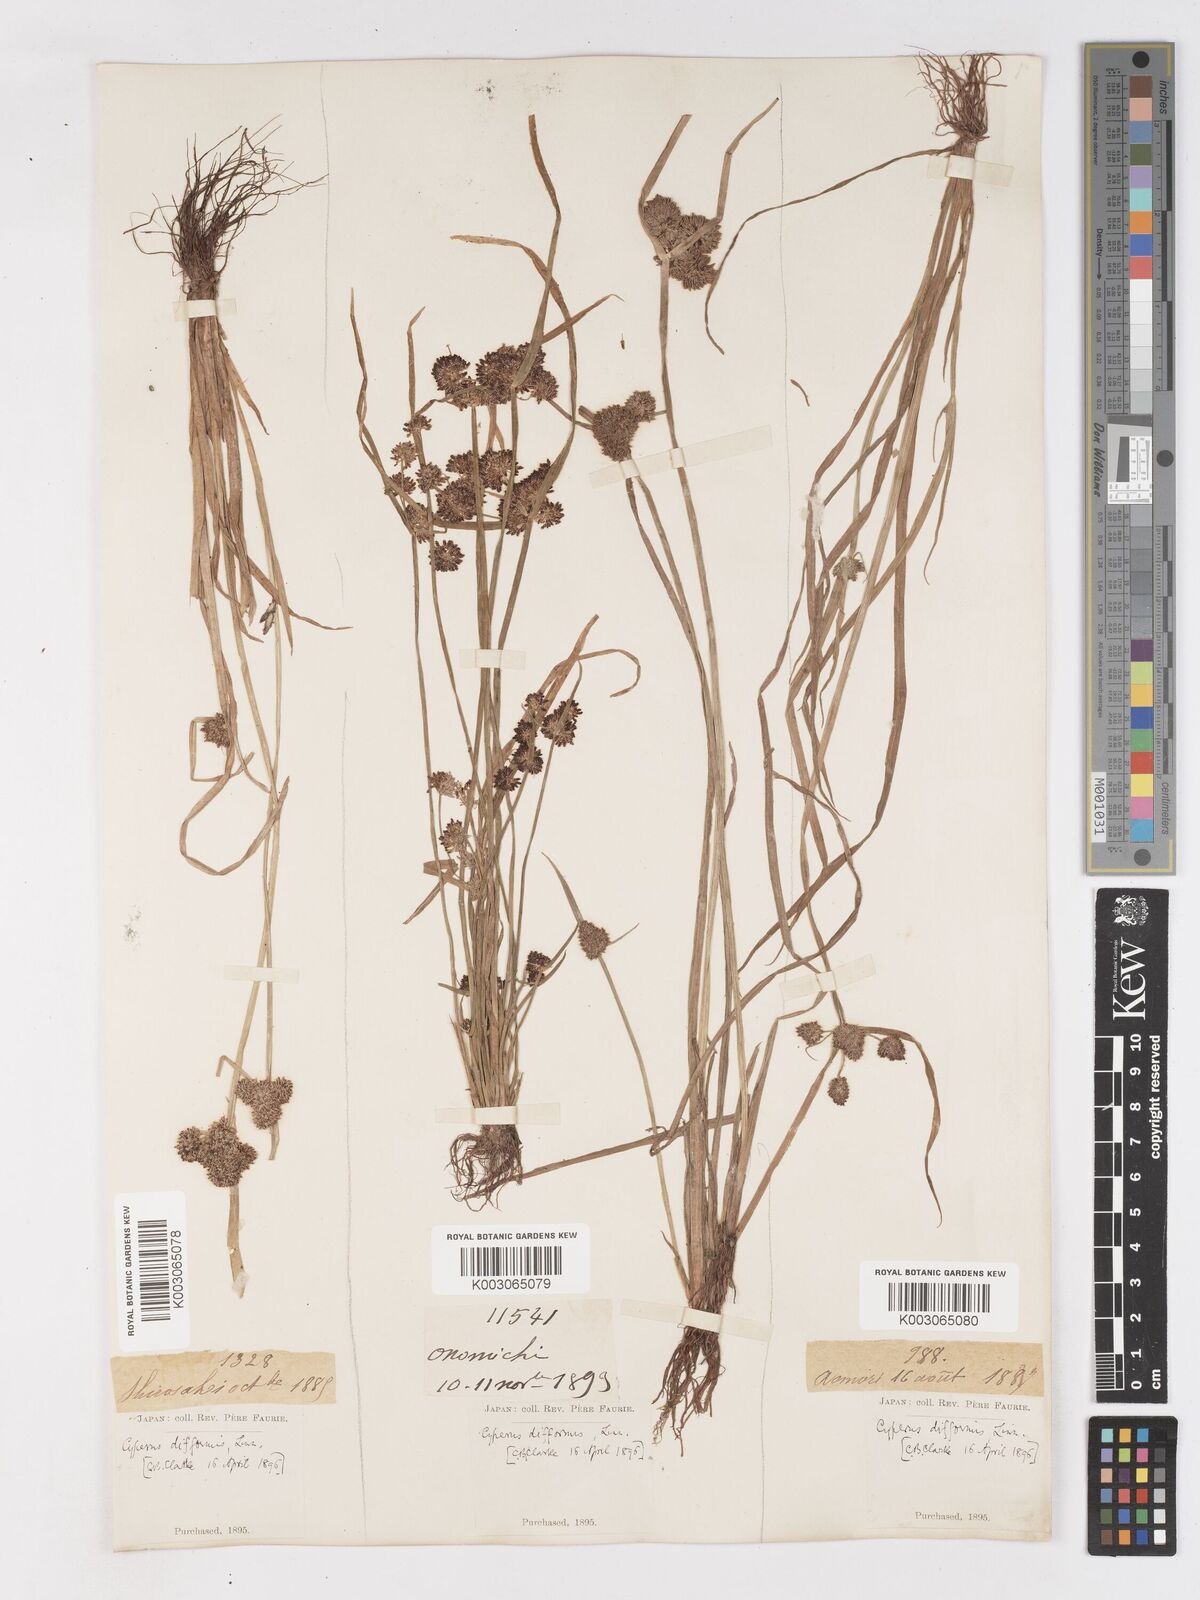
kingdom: Plantae
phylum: Tracheophyta
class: Liliopsida
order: Poales
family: Cyperaceae
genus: Cyperus
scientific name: Cyperus difformis
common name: Variable flatsedge
